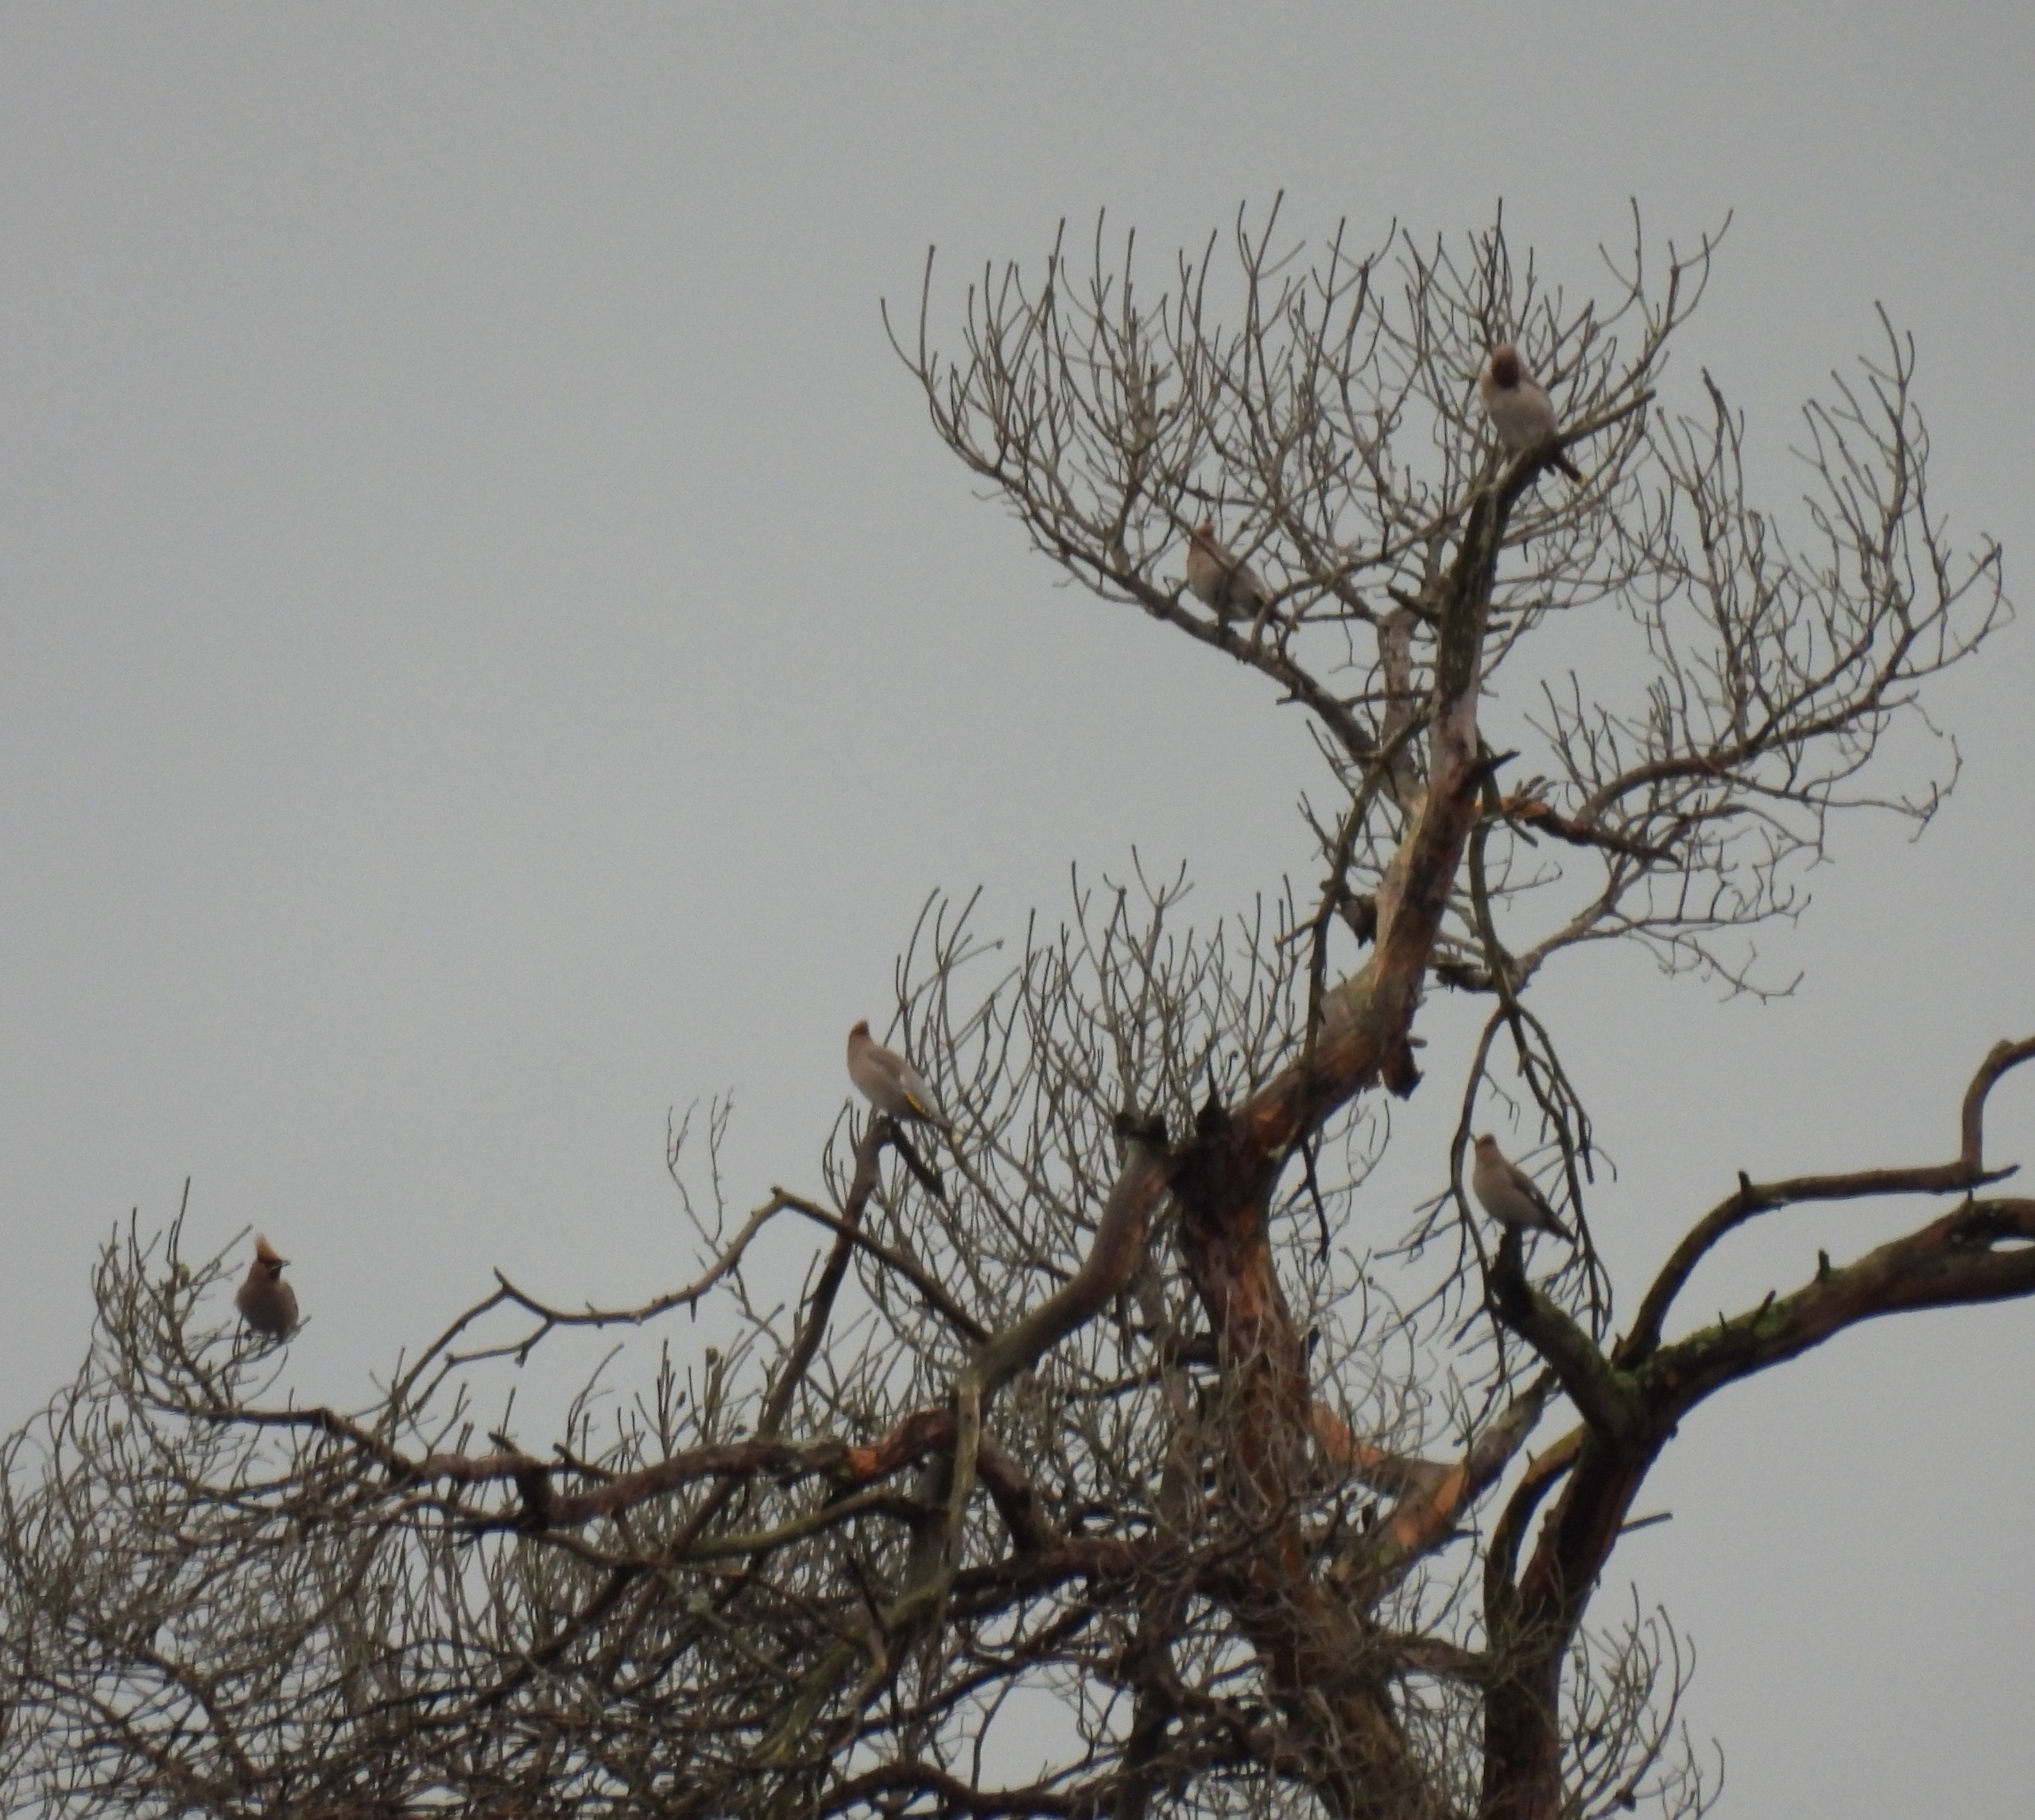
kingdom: Animalia
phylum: Chordata
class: Aves
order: Passeriformes
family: Bombycillidae
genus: Bombycilla
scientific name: Bombycilla garrulus
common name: Silkehale
